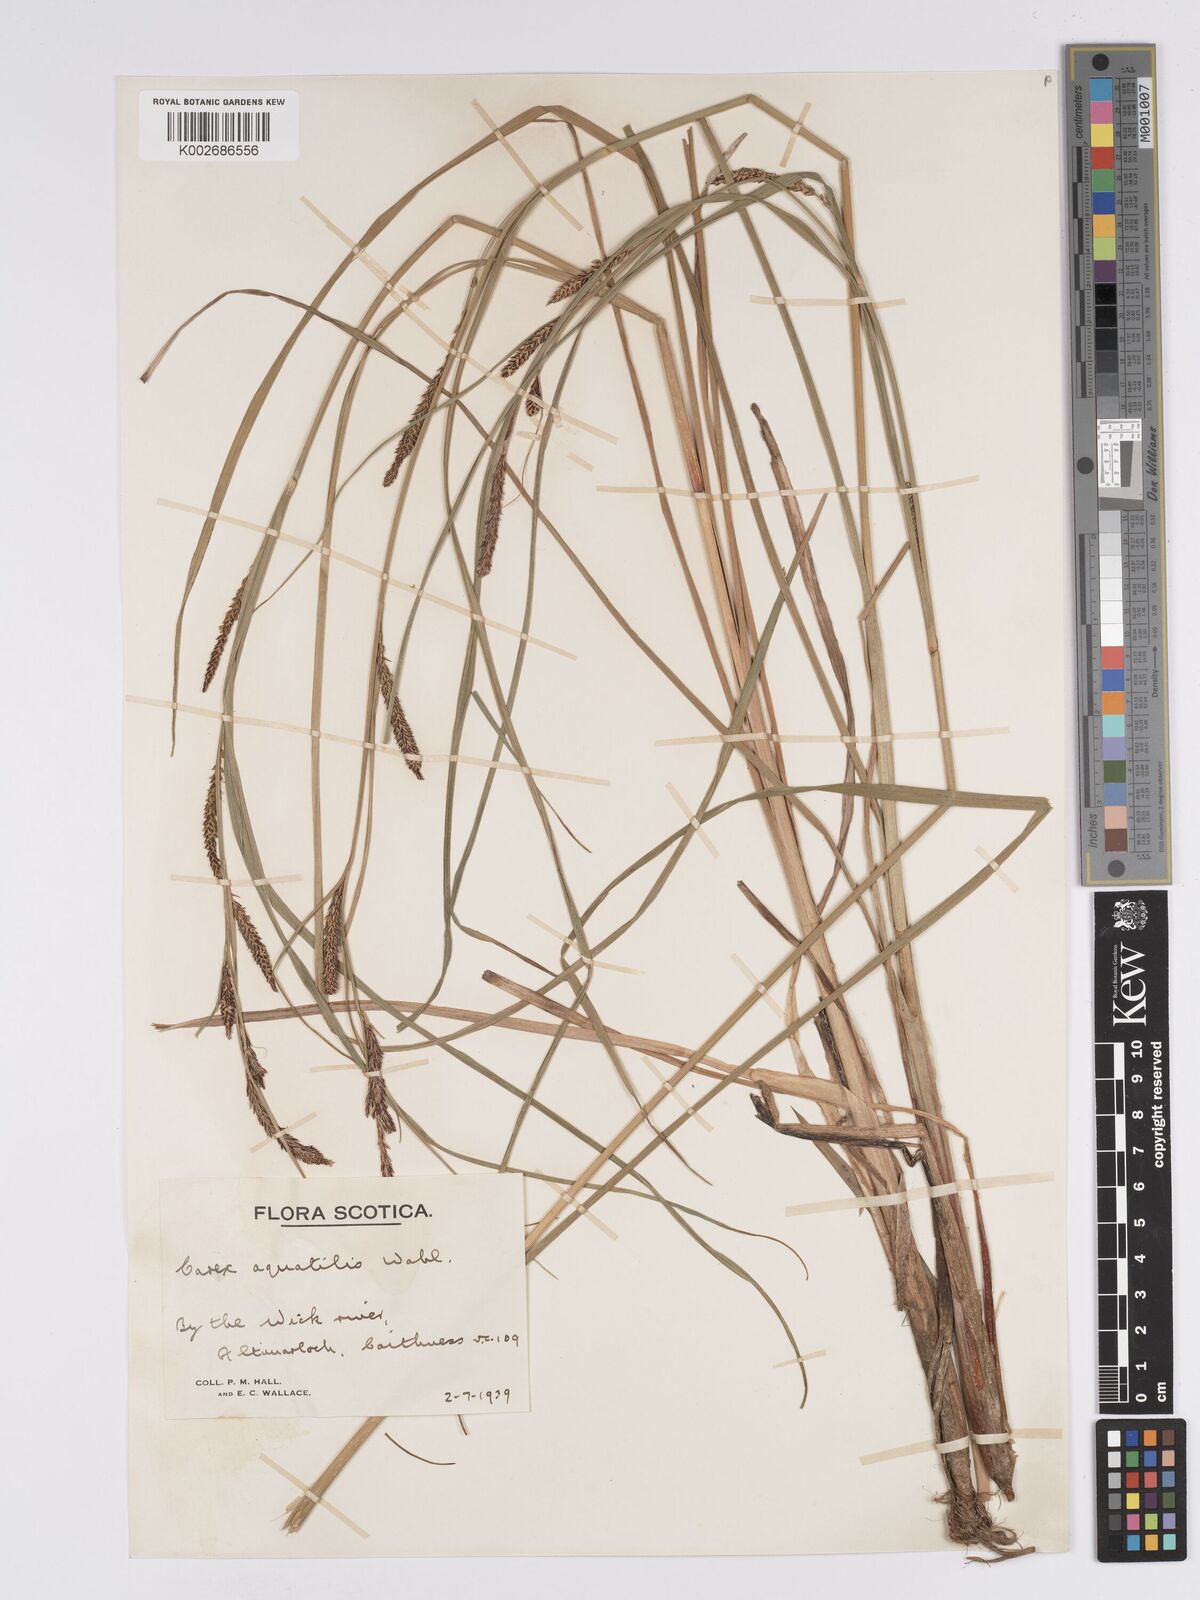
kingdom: Plantae
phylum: Tracheophyta
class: Liliopsida
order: Poales
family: Cyperaceae
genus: Carex
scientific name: Carex aquatilis
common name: Water sedge
